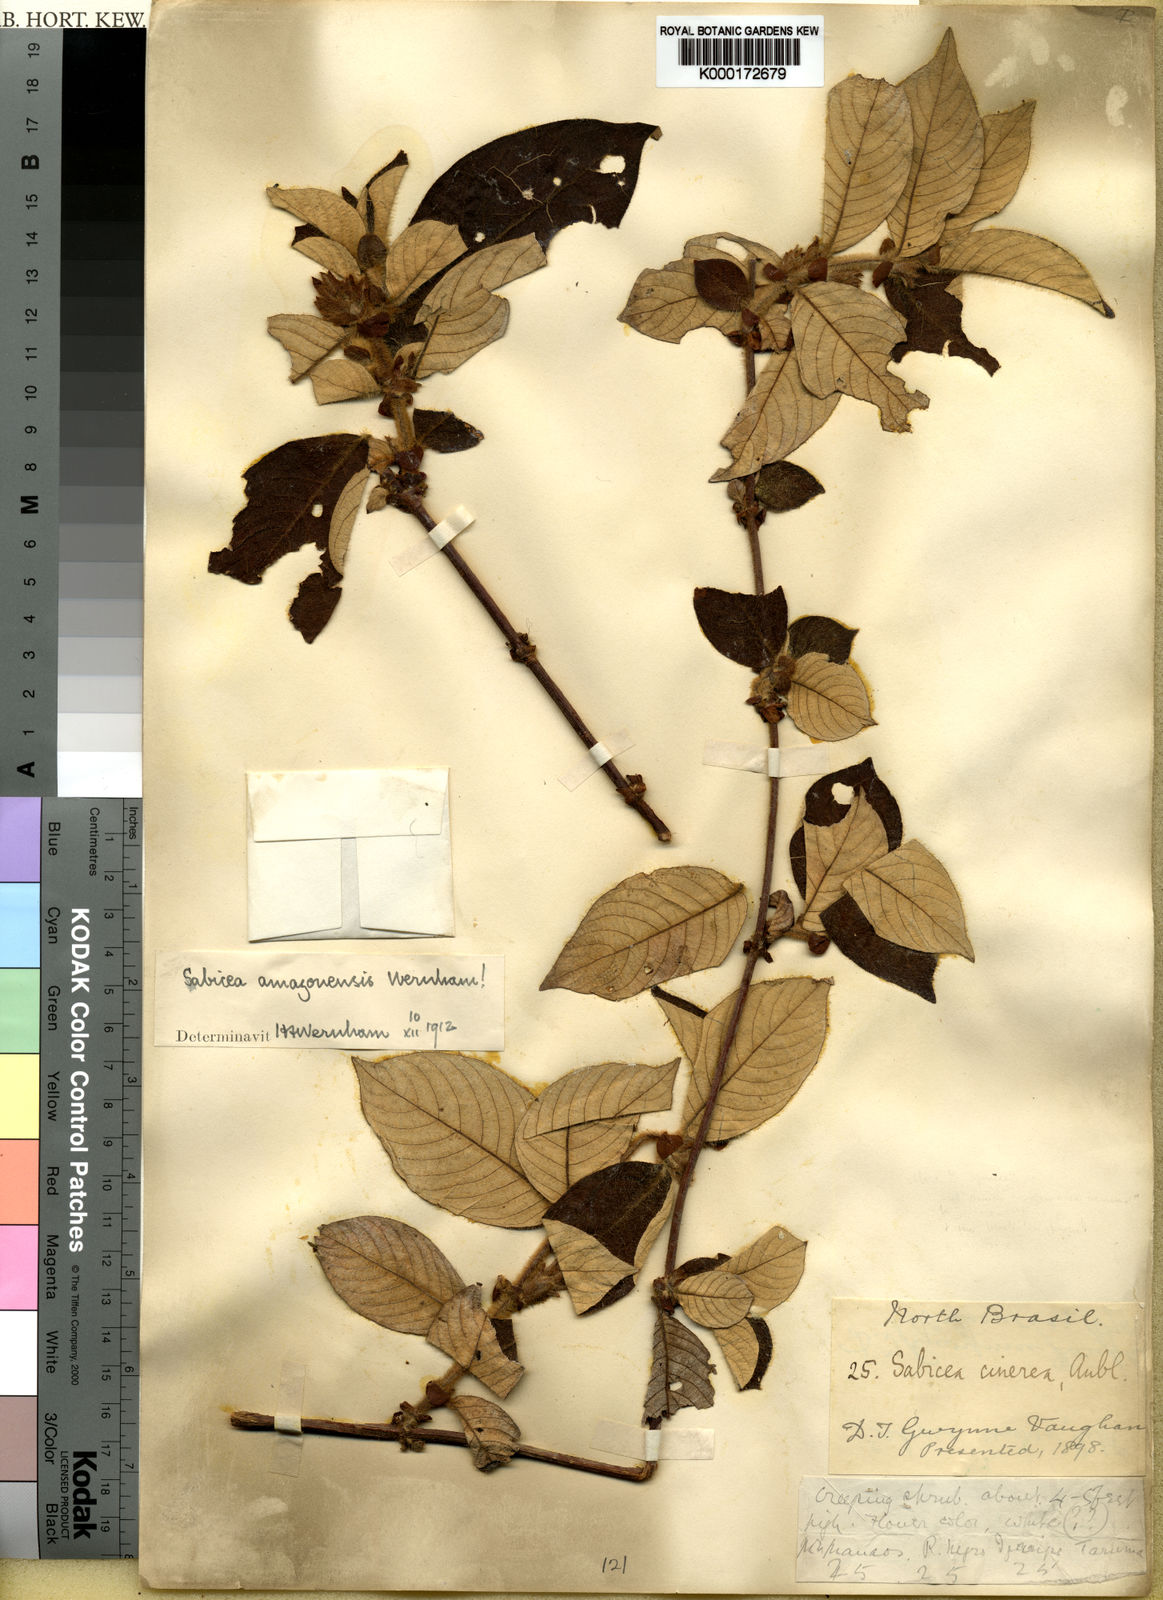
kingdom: Plantae
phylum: Tracheophyta
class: Magnoliopsida
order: Gentianales
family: Rubiaceae
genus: Sabicea
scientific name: Sabicea amazonensis
